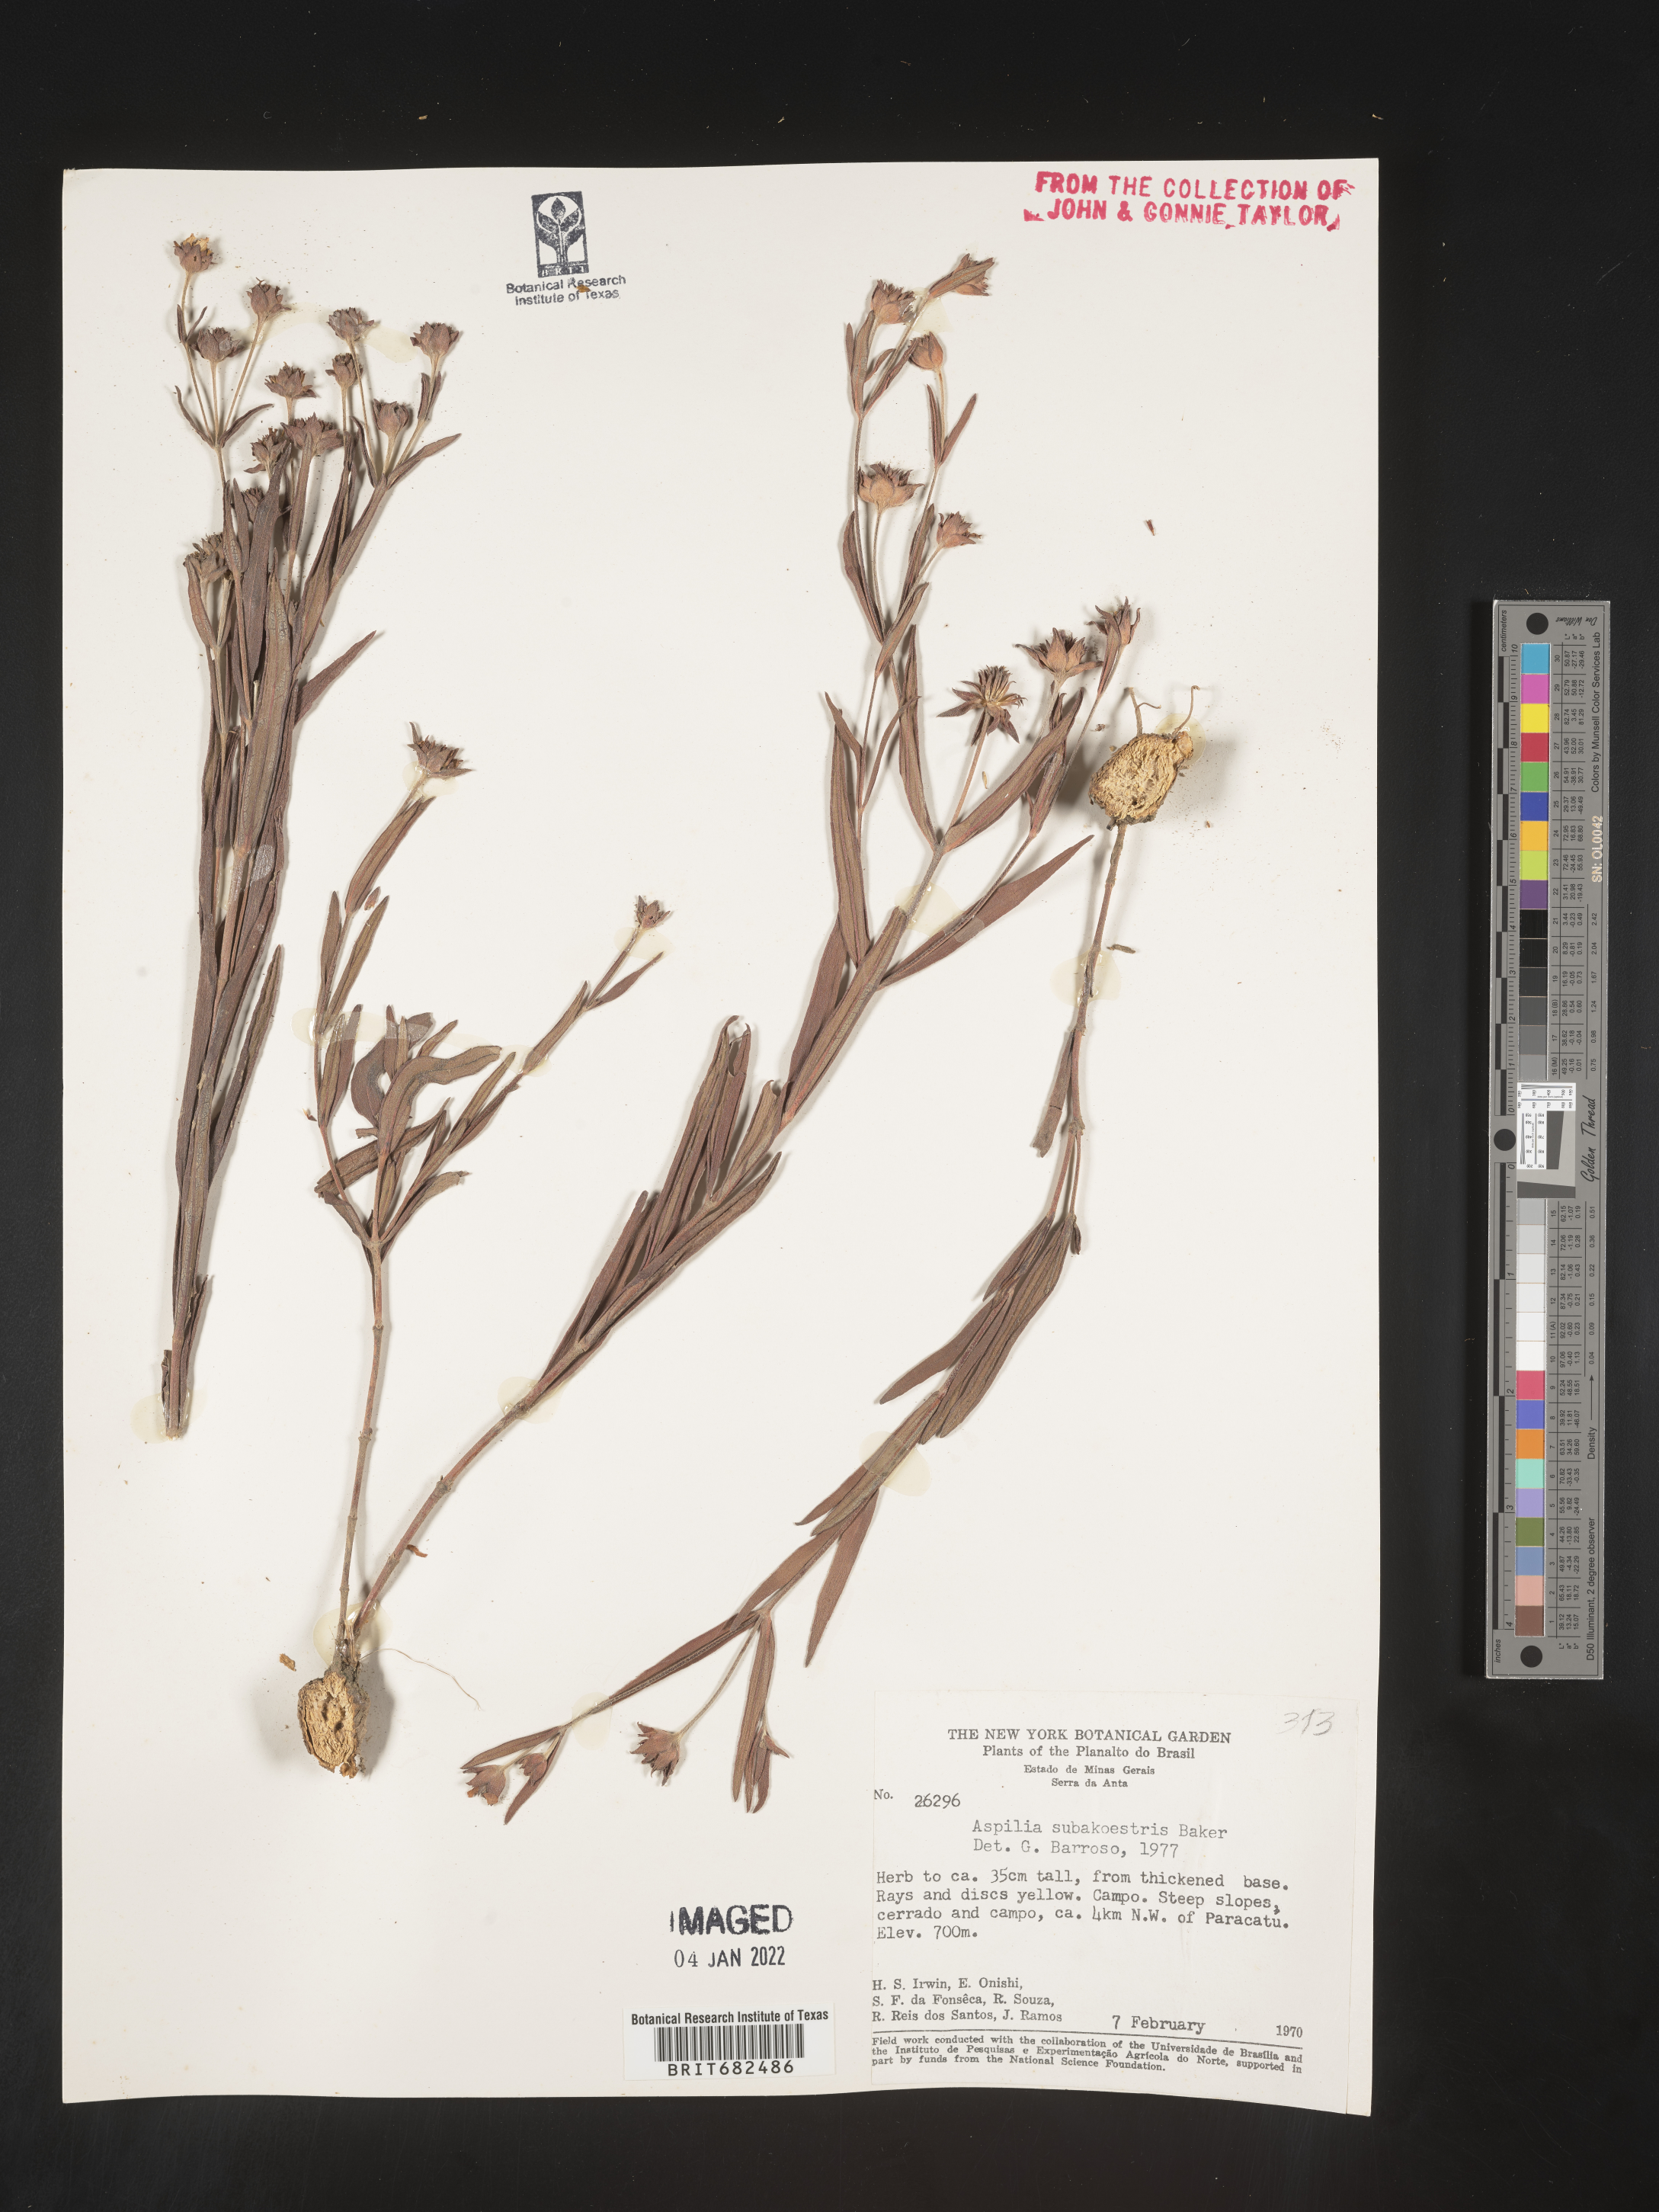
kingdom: Plantae
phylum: Tracheophyta
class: Magnoliopsida
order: Asterales
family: Asteraceae
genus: Aspilia
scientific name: Aspilia
